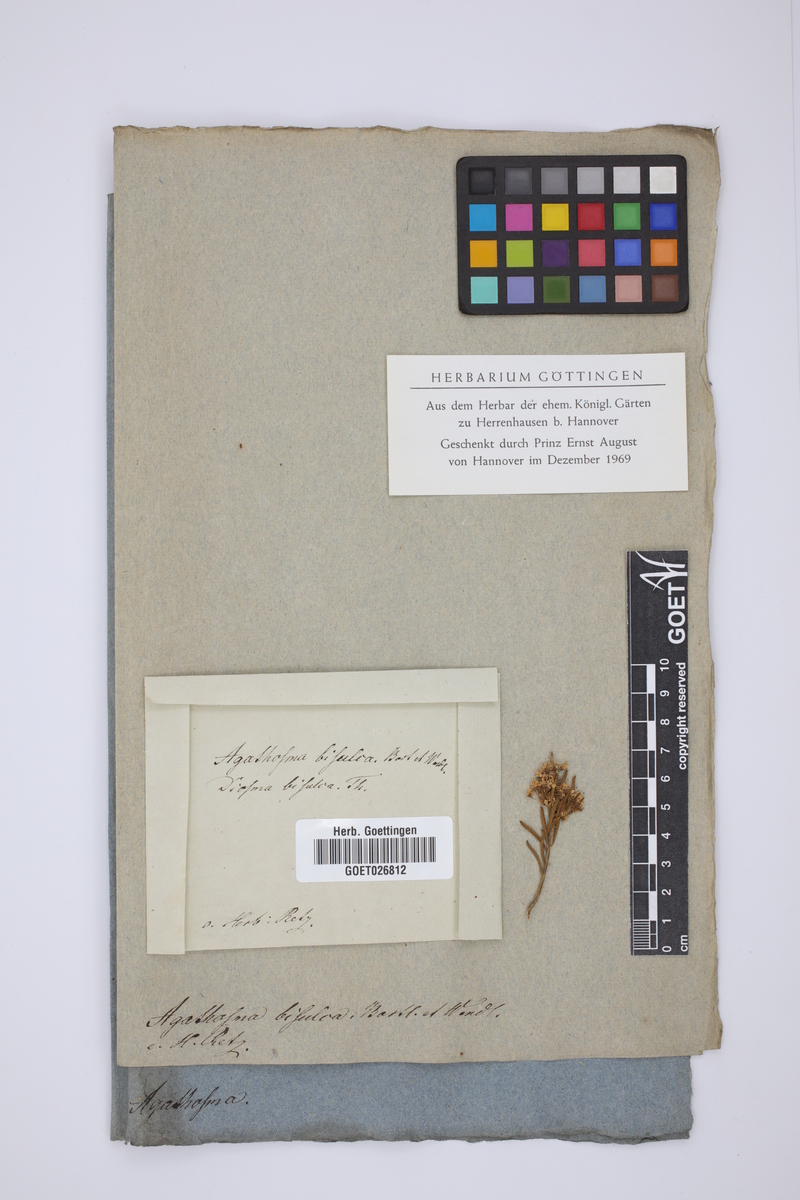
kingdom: Plantae
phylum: Tracheophyta
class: Magnoliopsida
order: Sapindales
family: Rutaceae
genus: Agathosma
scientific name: Agathosma bisulca
